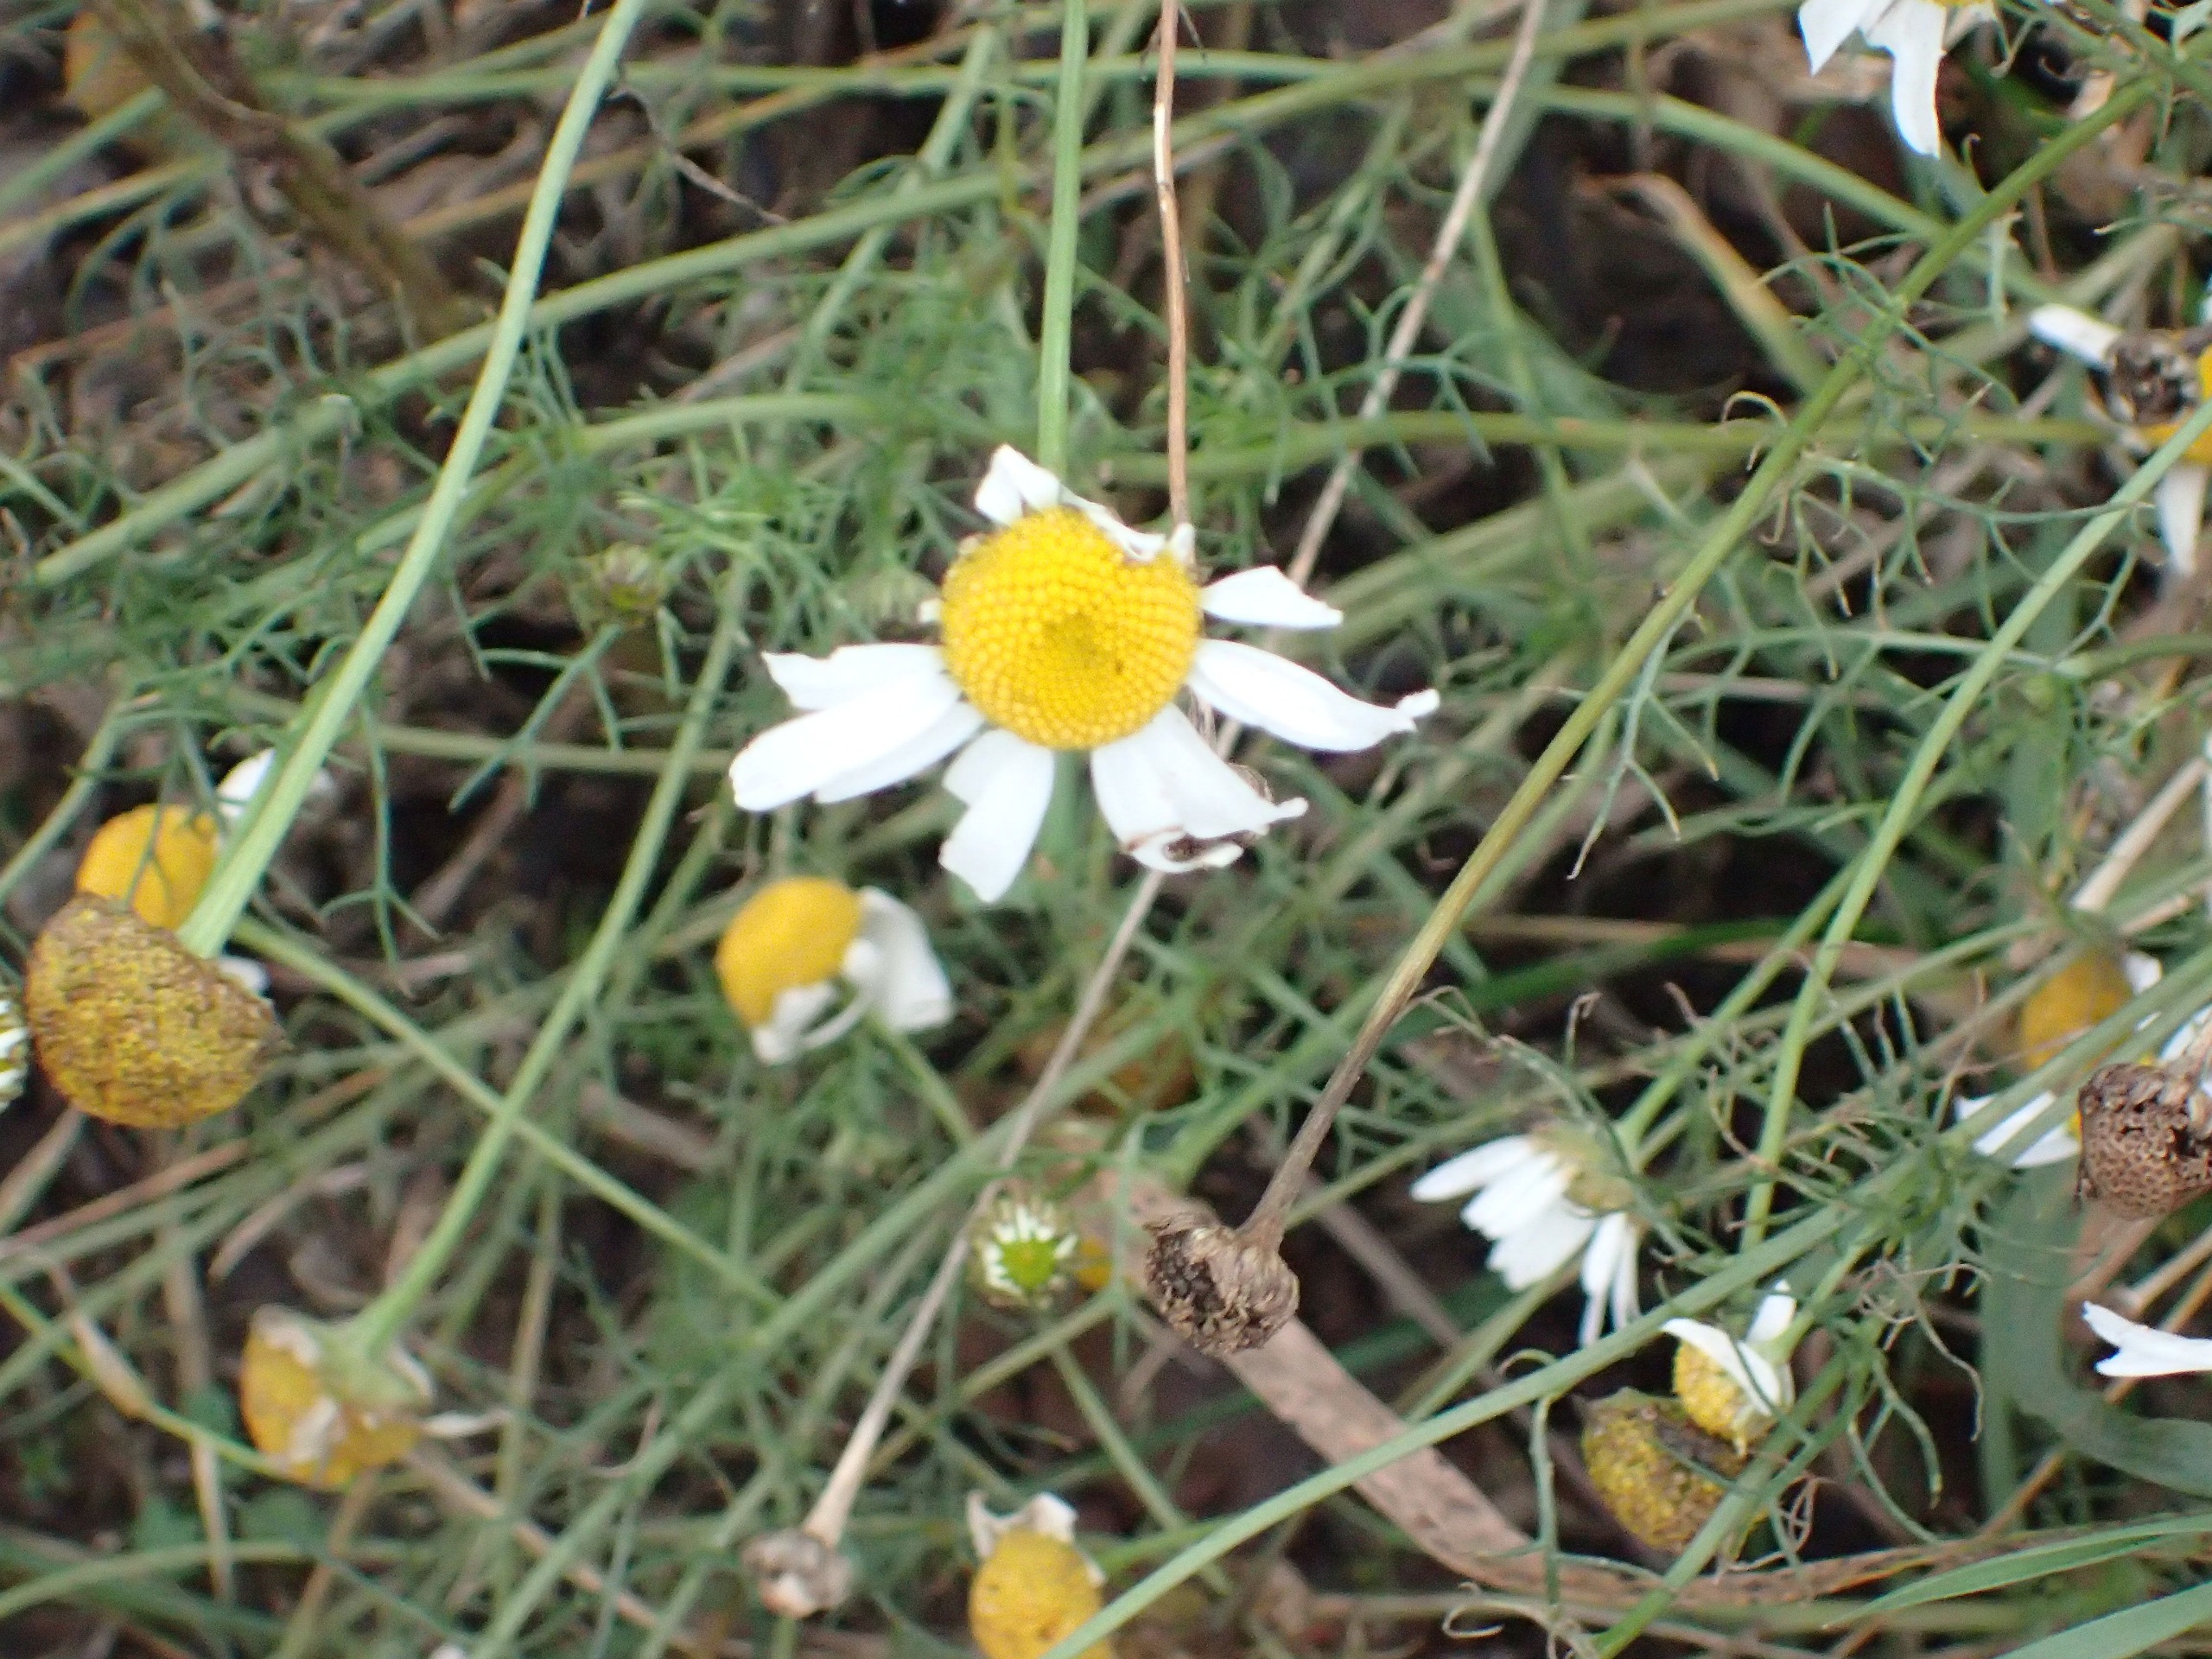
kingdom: Plantae
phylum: Tracheophyta
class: Magnoliopsida
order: Asterales
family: Asteraceae
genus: Tripleurospermum
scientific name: Tripleurospermum inodorum
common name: Lugtløs kamille
